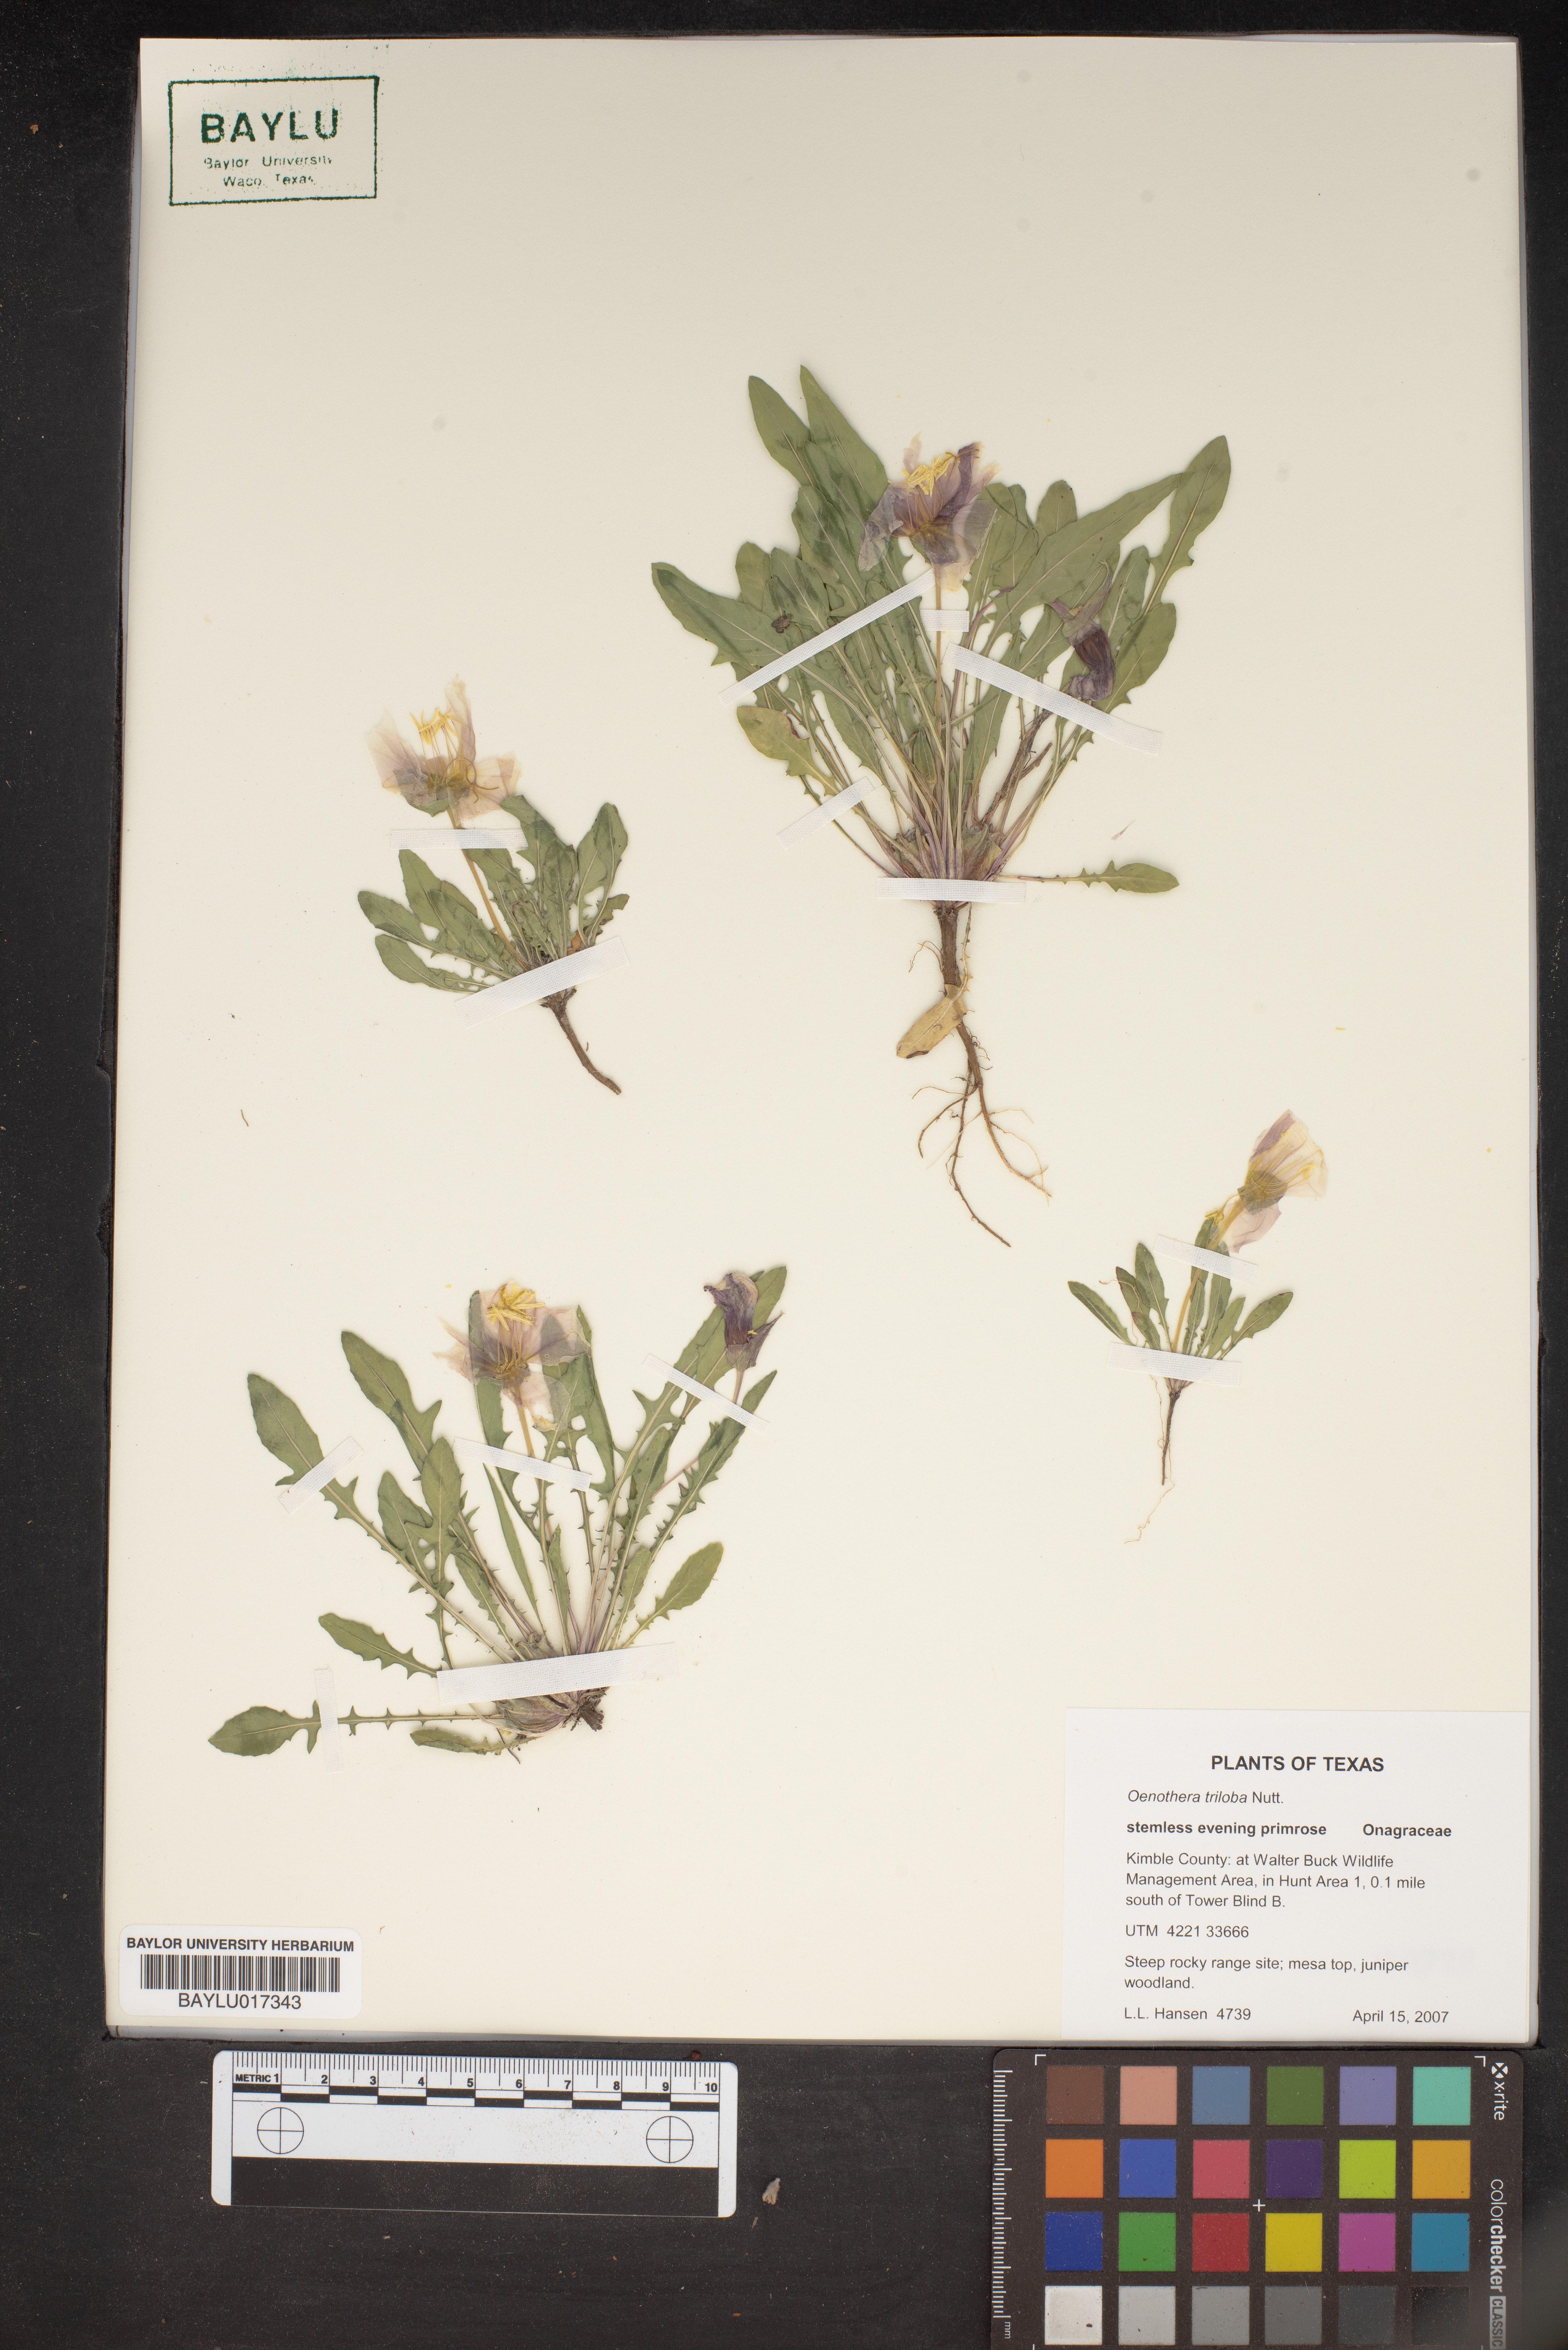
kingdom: Plantae
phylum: Tracheophyta
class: Magnoliopsida
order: Myrtales
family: Onagraceae
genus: Oenothera
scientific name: Oenothera triloba
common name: Sessile evening-primrose
